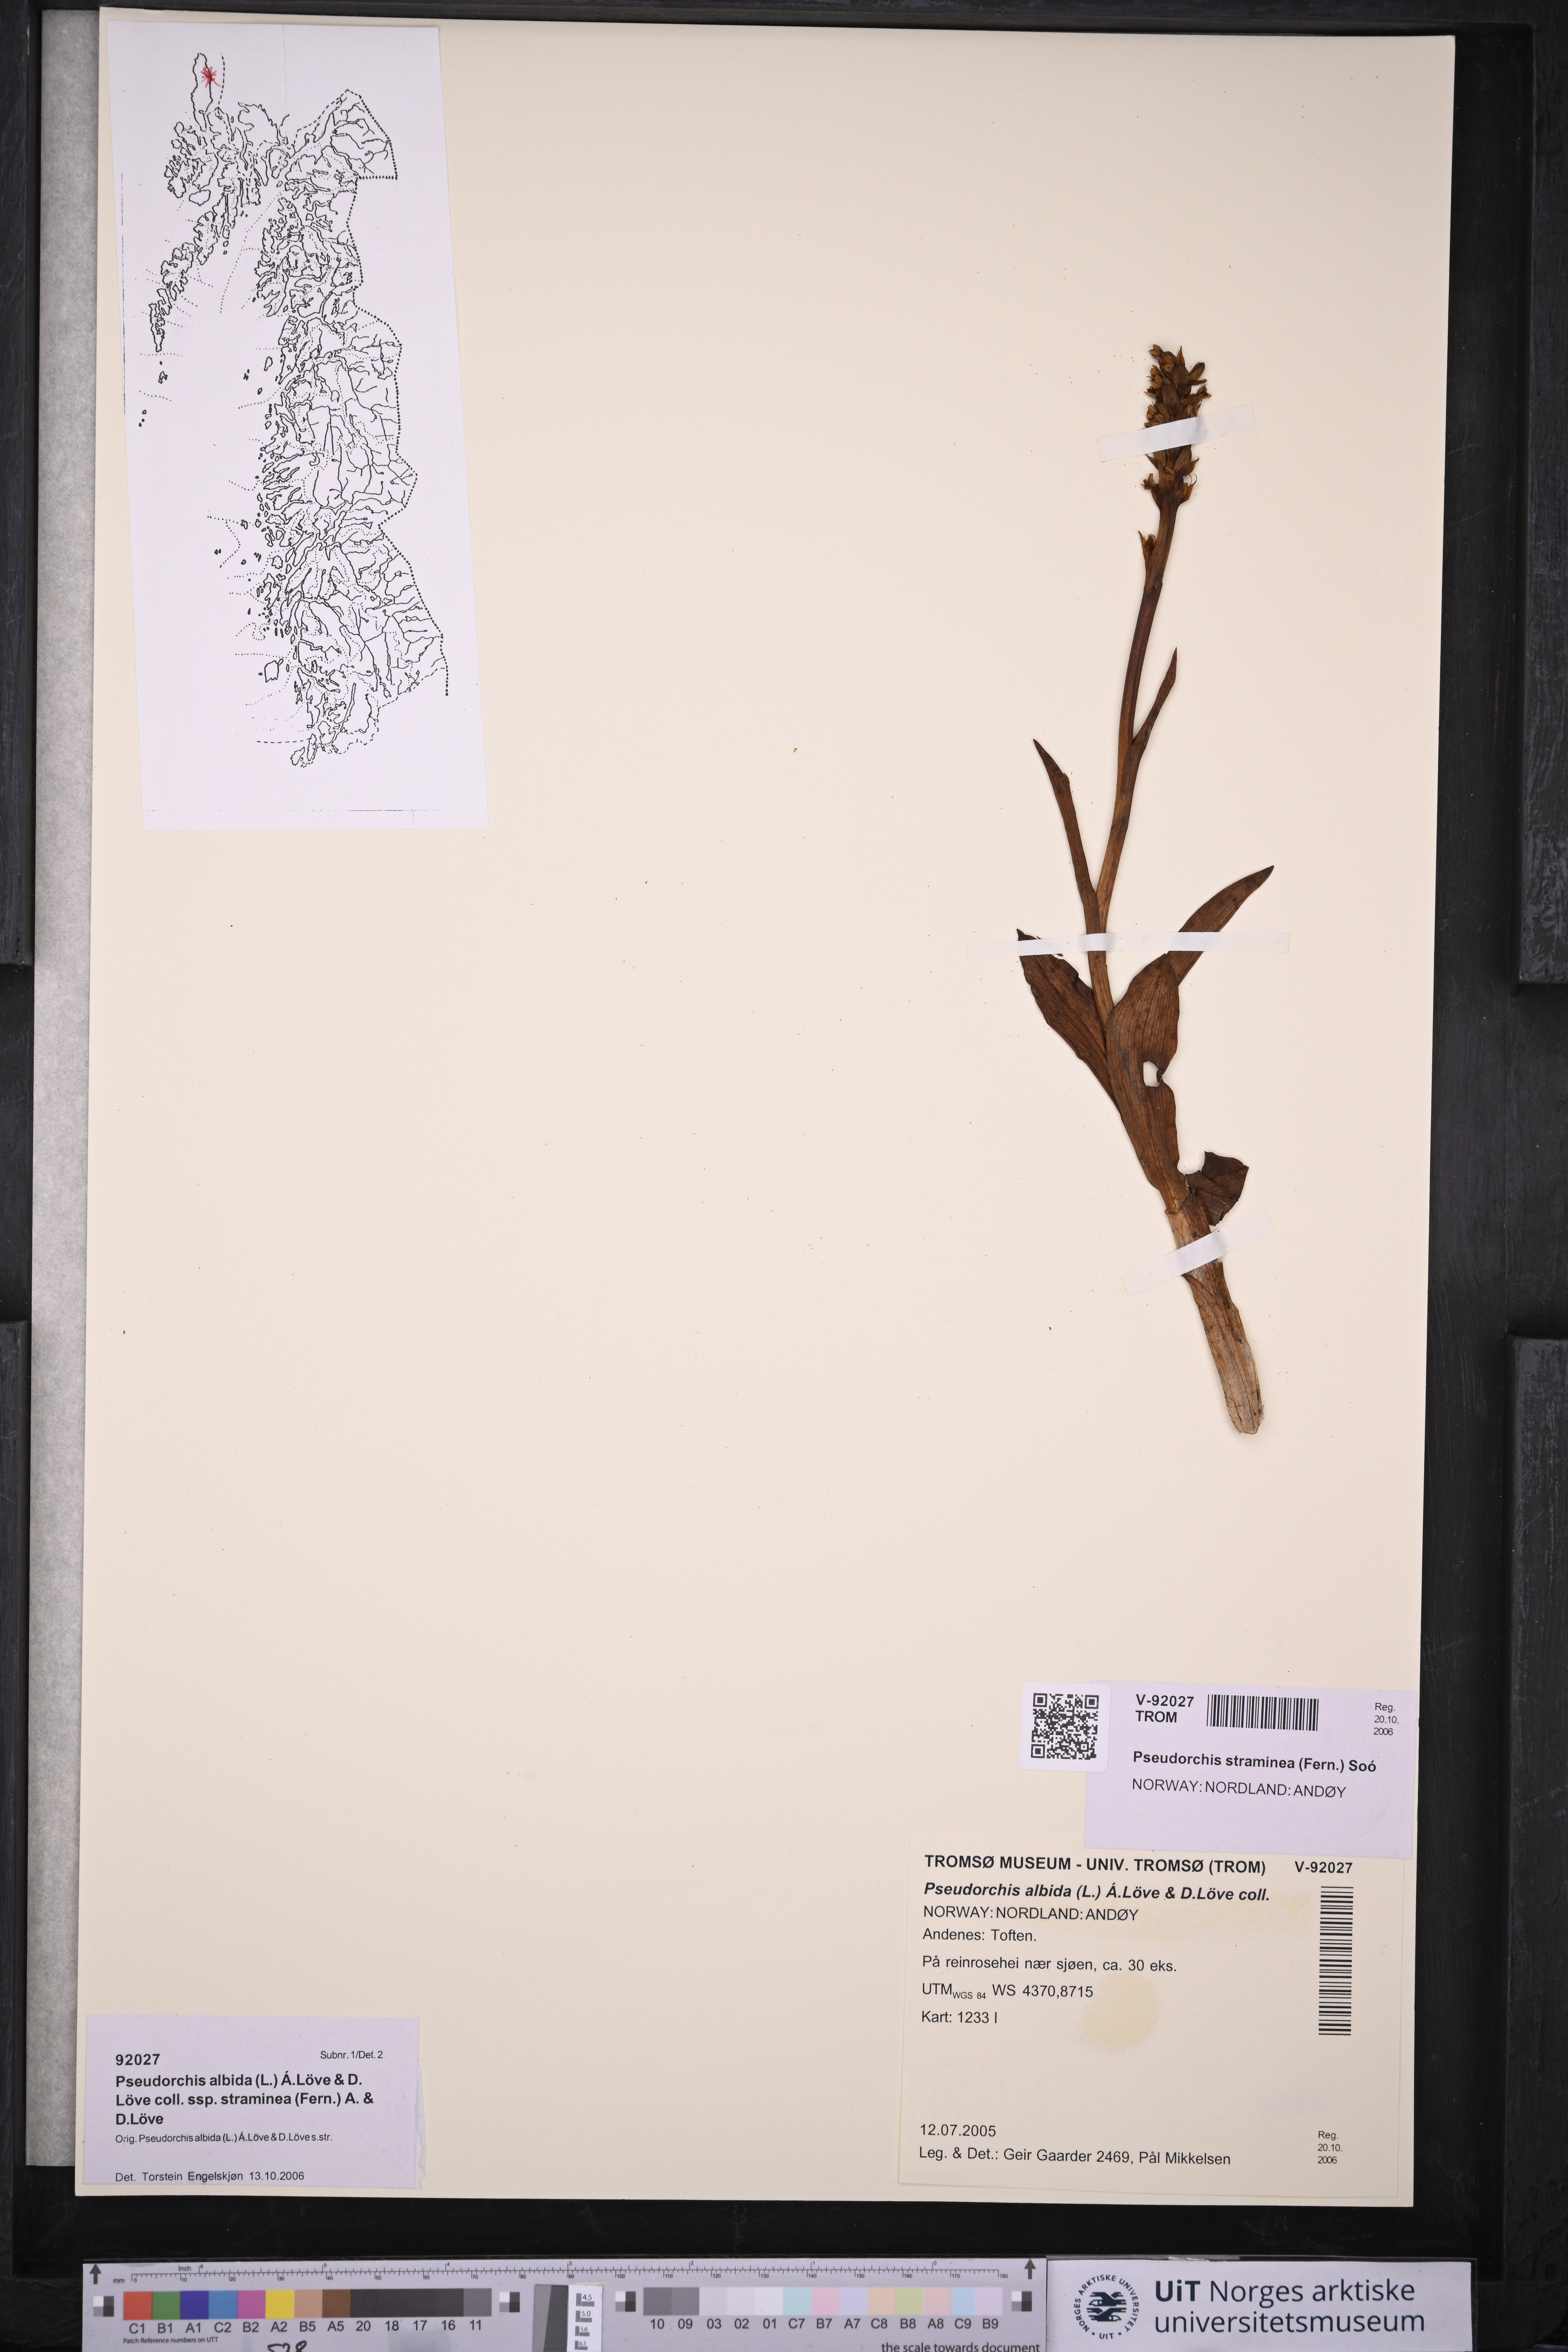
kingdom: Plantae
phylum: Tracheophyta
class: Liliopsida
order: Asparagales
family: Orchidaceae
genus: Pseudorchis
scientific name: Pseudorchis straminea
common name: Vanilla-scented bog orchid
